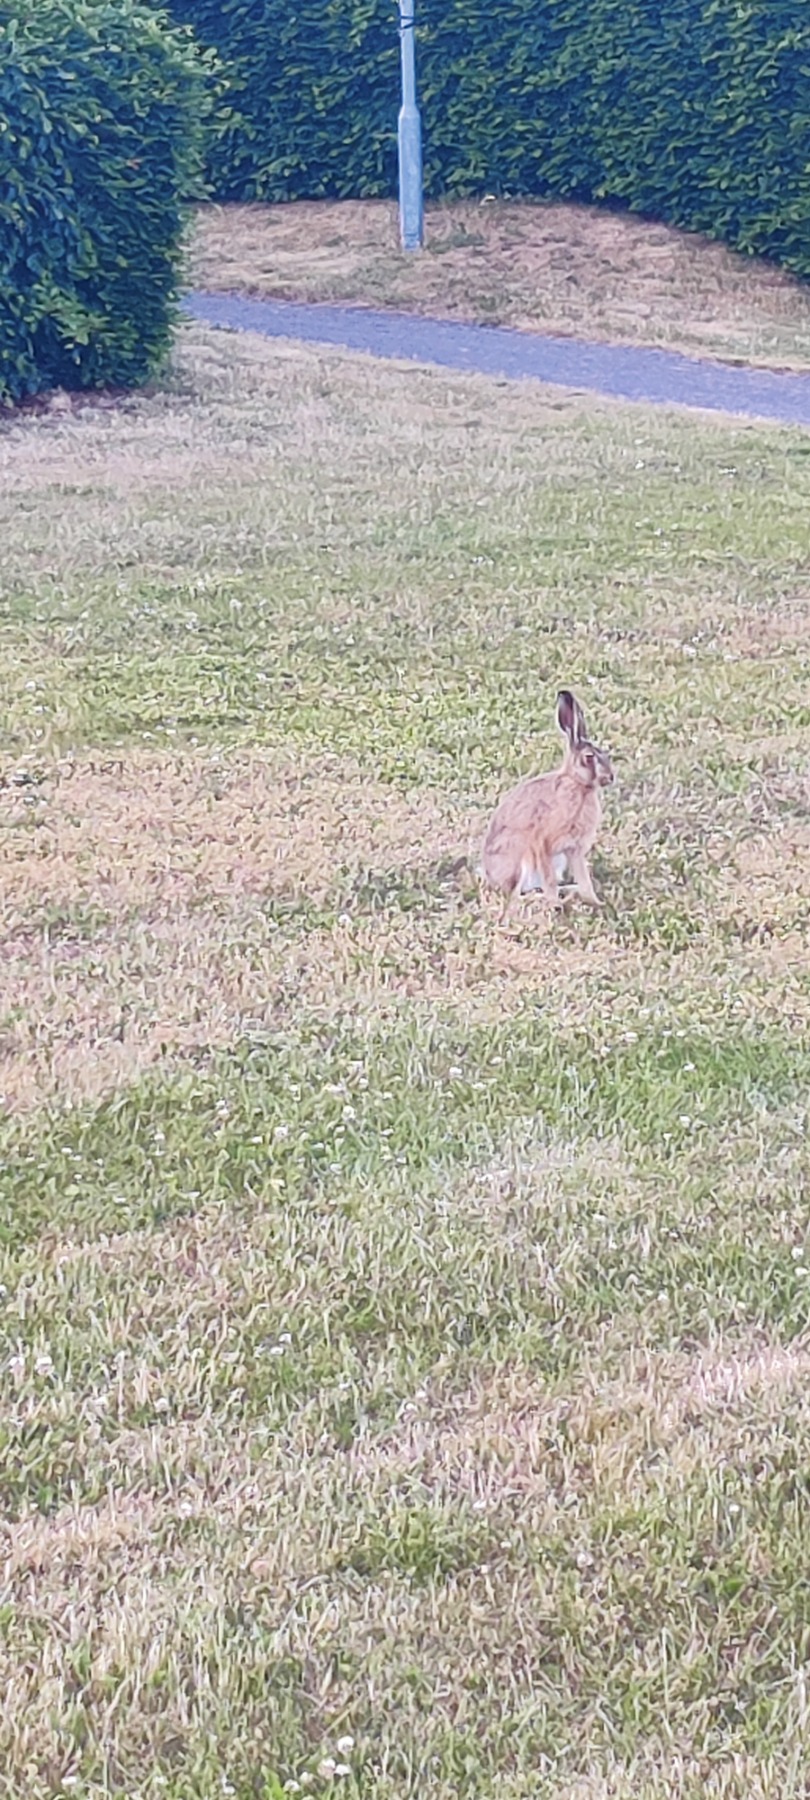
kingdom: Animalia
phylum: Chordata
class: Mammalia
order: Lagomorpha
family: Leporidae
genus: Lepus
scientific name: Lepus europaeus
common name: Hare
